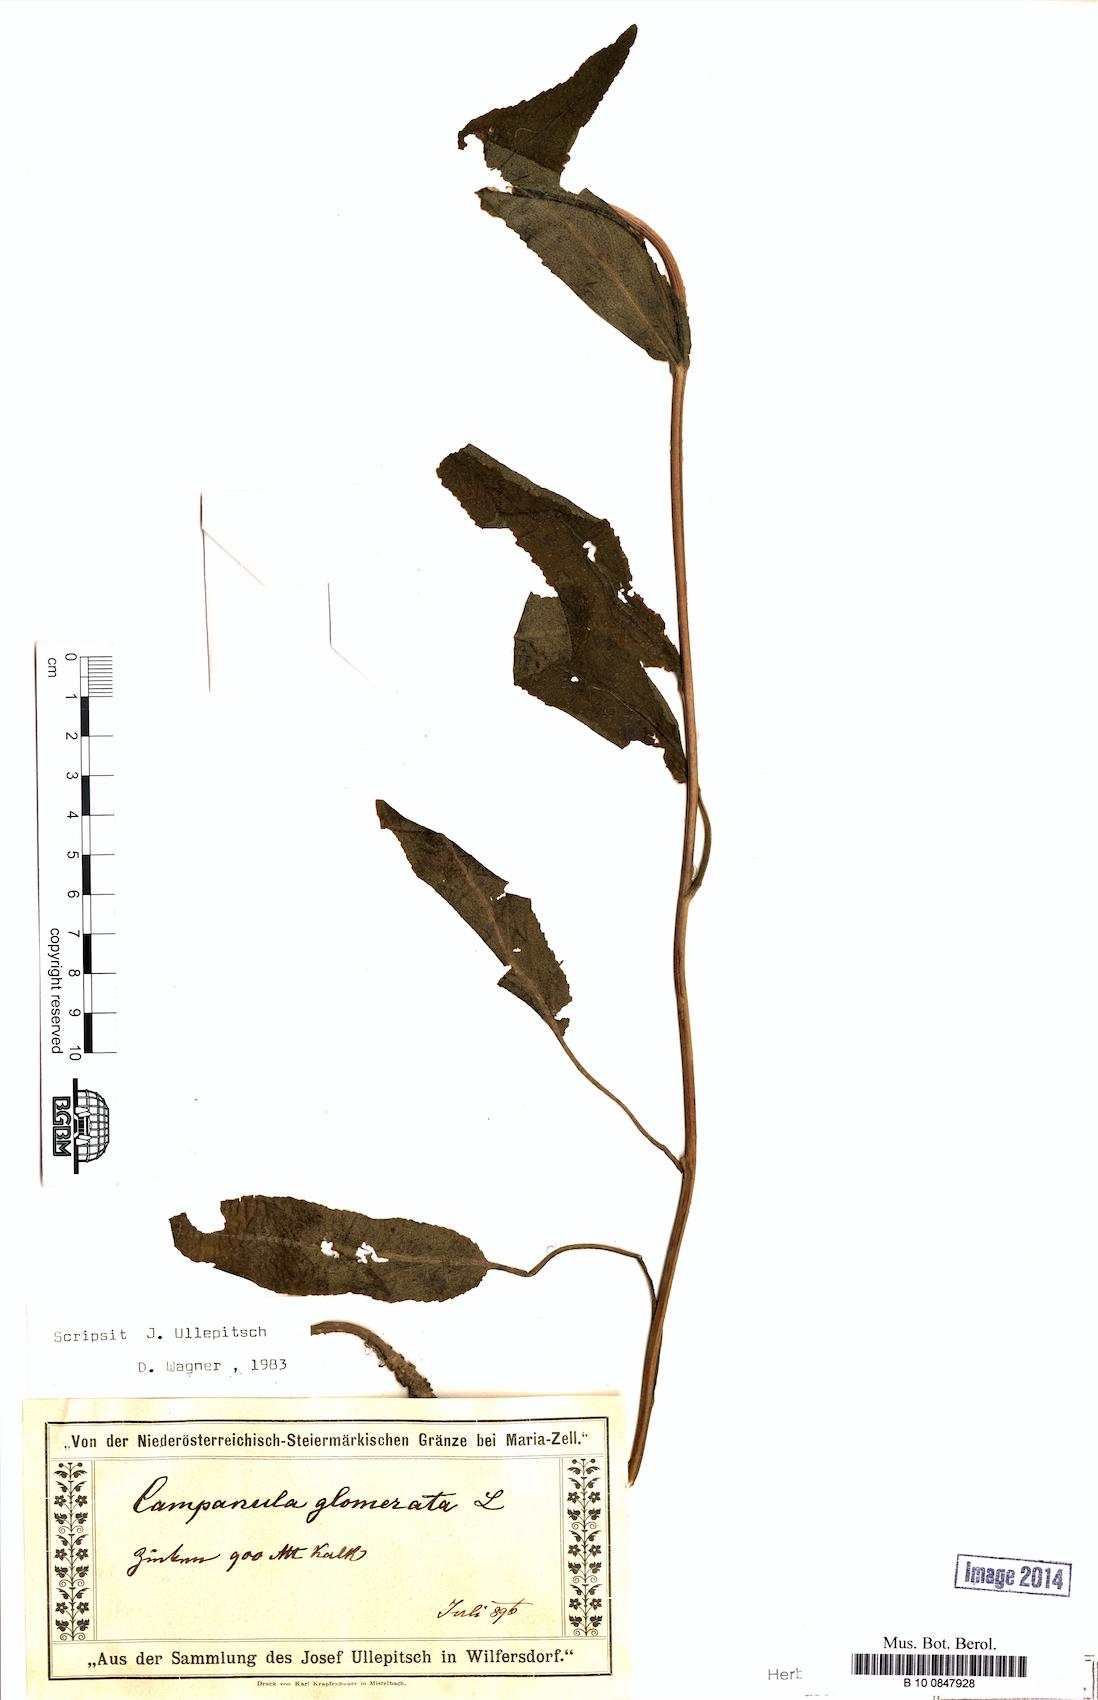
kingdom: Plantae
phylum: Tracheophyta
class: Magnoliopsida
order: Asterales
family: Campanulaceae
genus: Campanula
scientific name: Campanula glomerata
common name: Clustered bellflower
